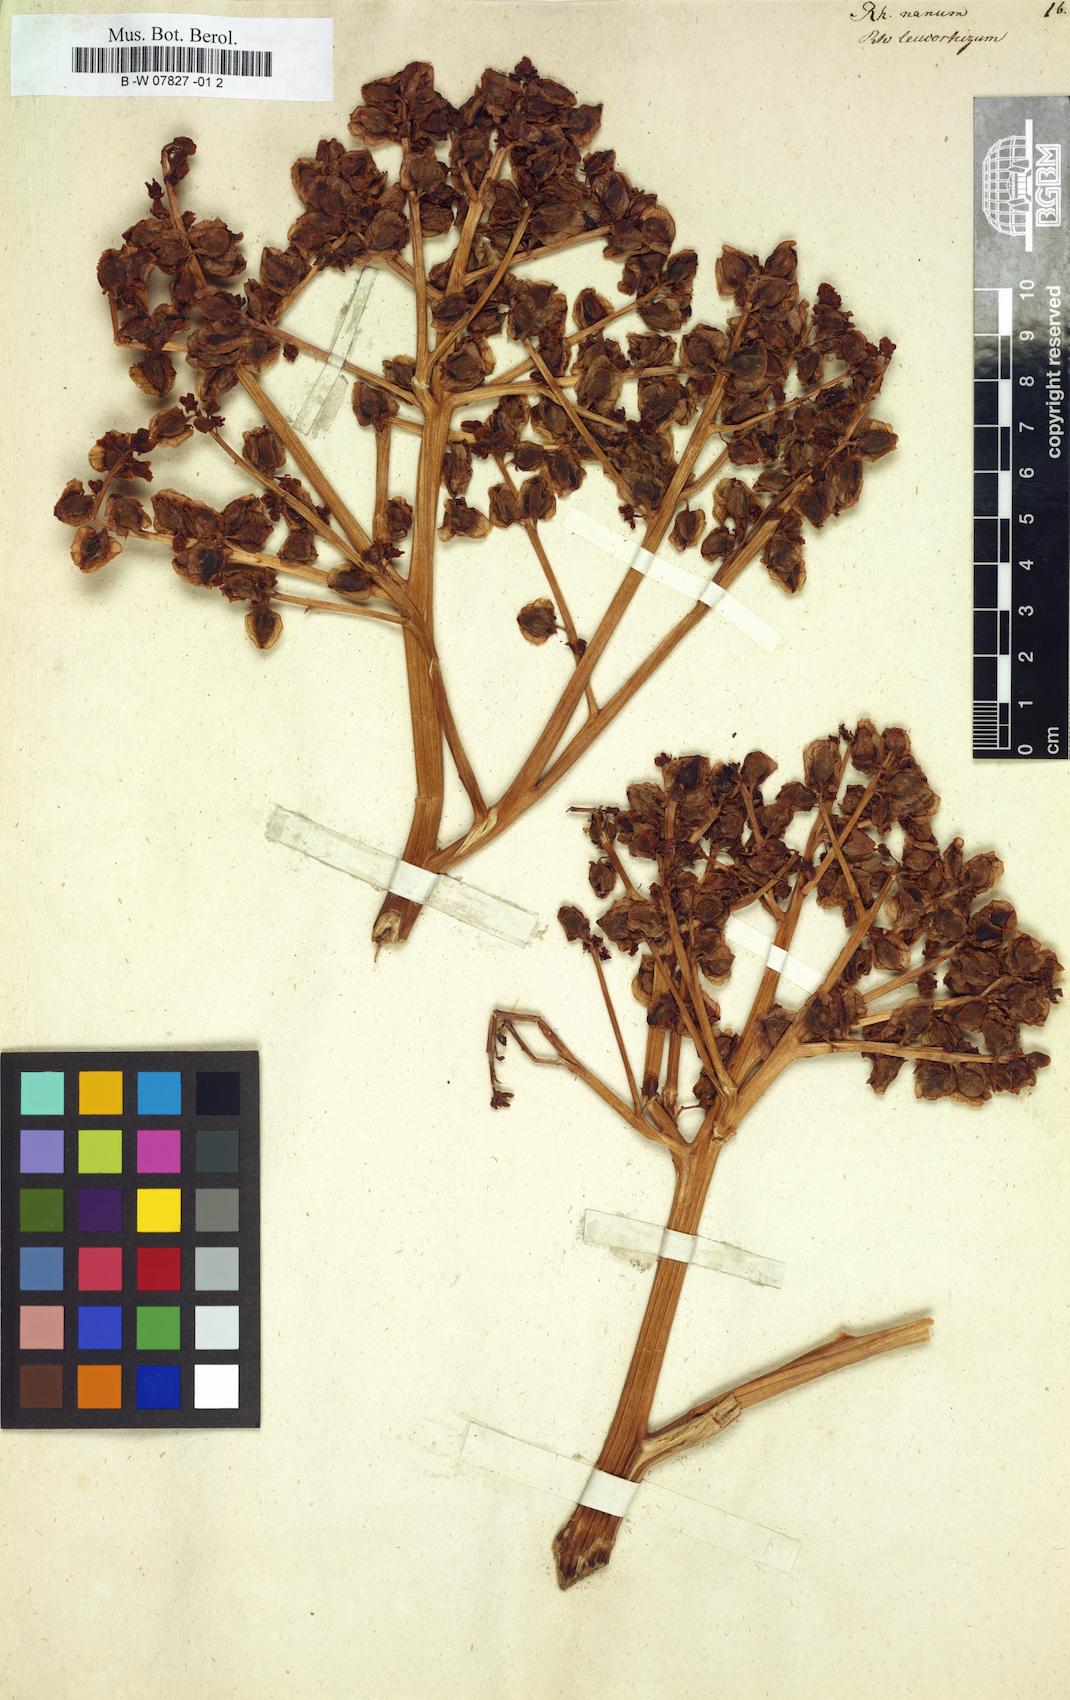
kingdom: Plantae
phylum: Tracheophyta
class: Magnoliopsida
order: Caryophyllales
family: Polygonaceae
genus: Rheum
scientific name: Rheum nanum
